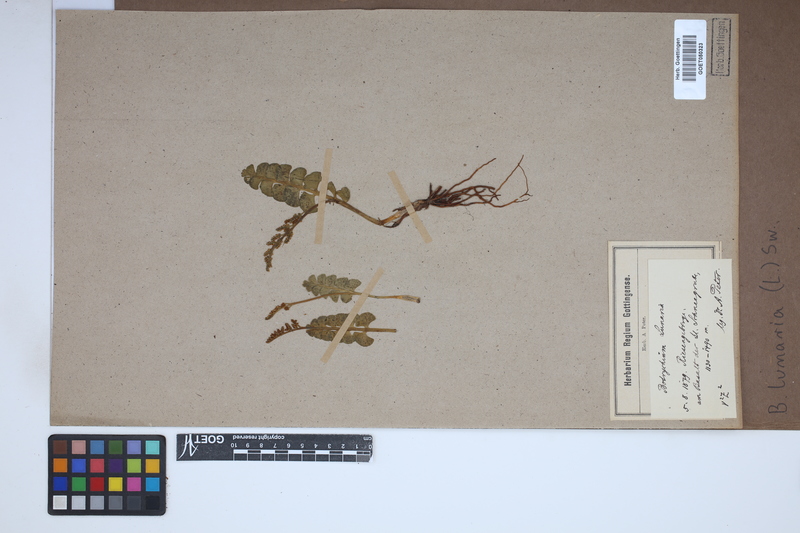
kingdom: Plantae
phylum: Tracheophyta
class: Polypodiopsida
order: Ophioglossales
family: Ophioglossaceae
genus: Botrychium
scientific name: Botrychium lunaria
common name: Moonwort
